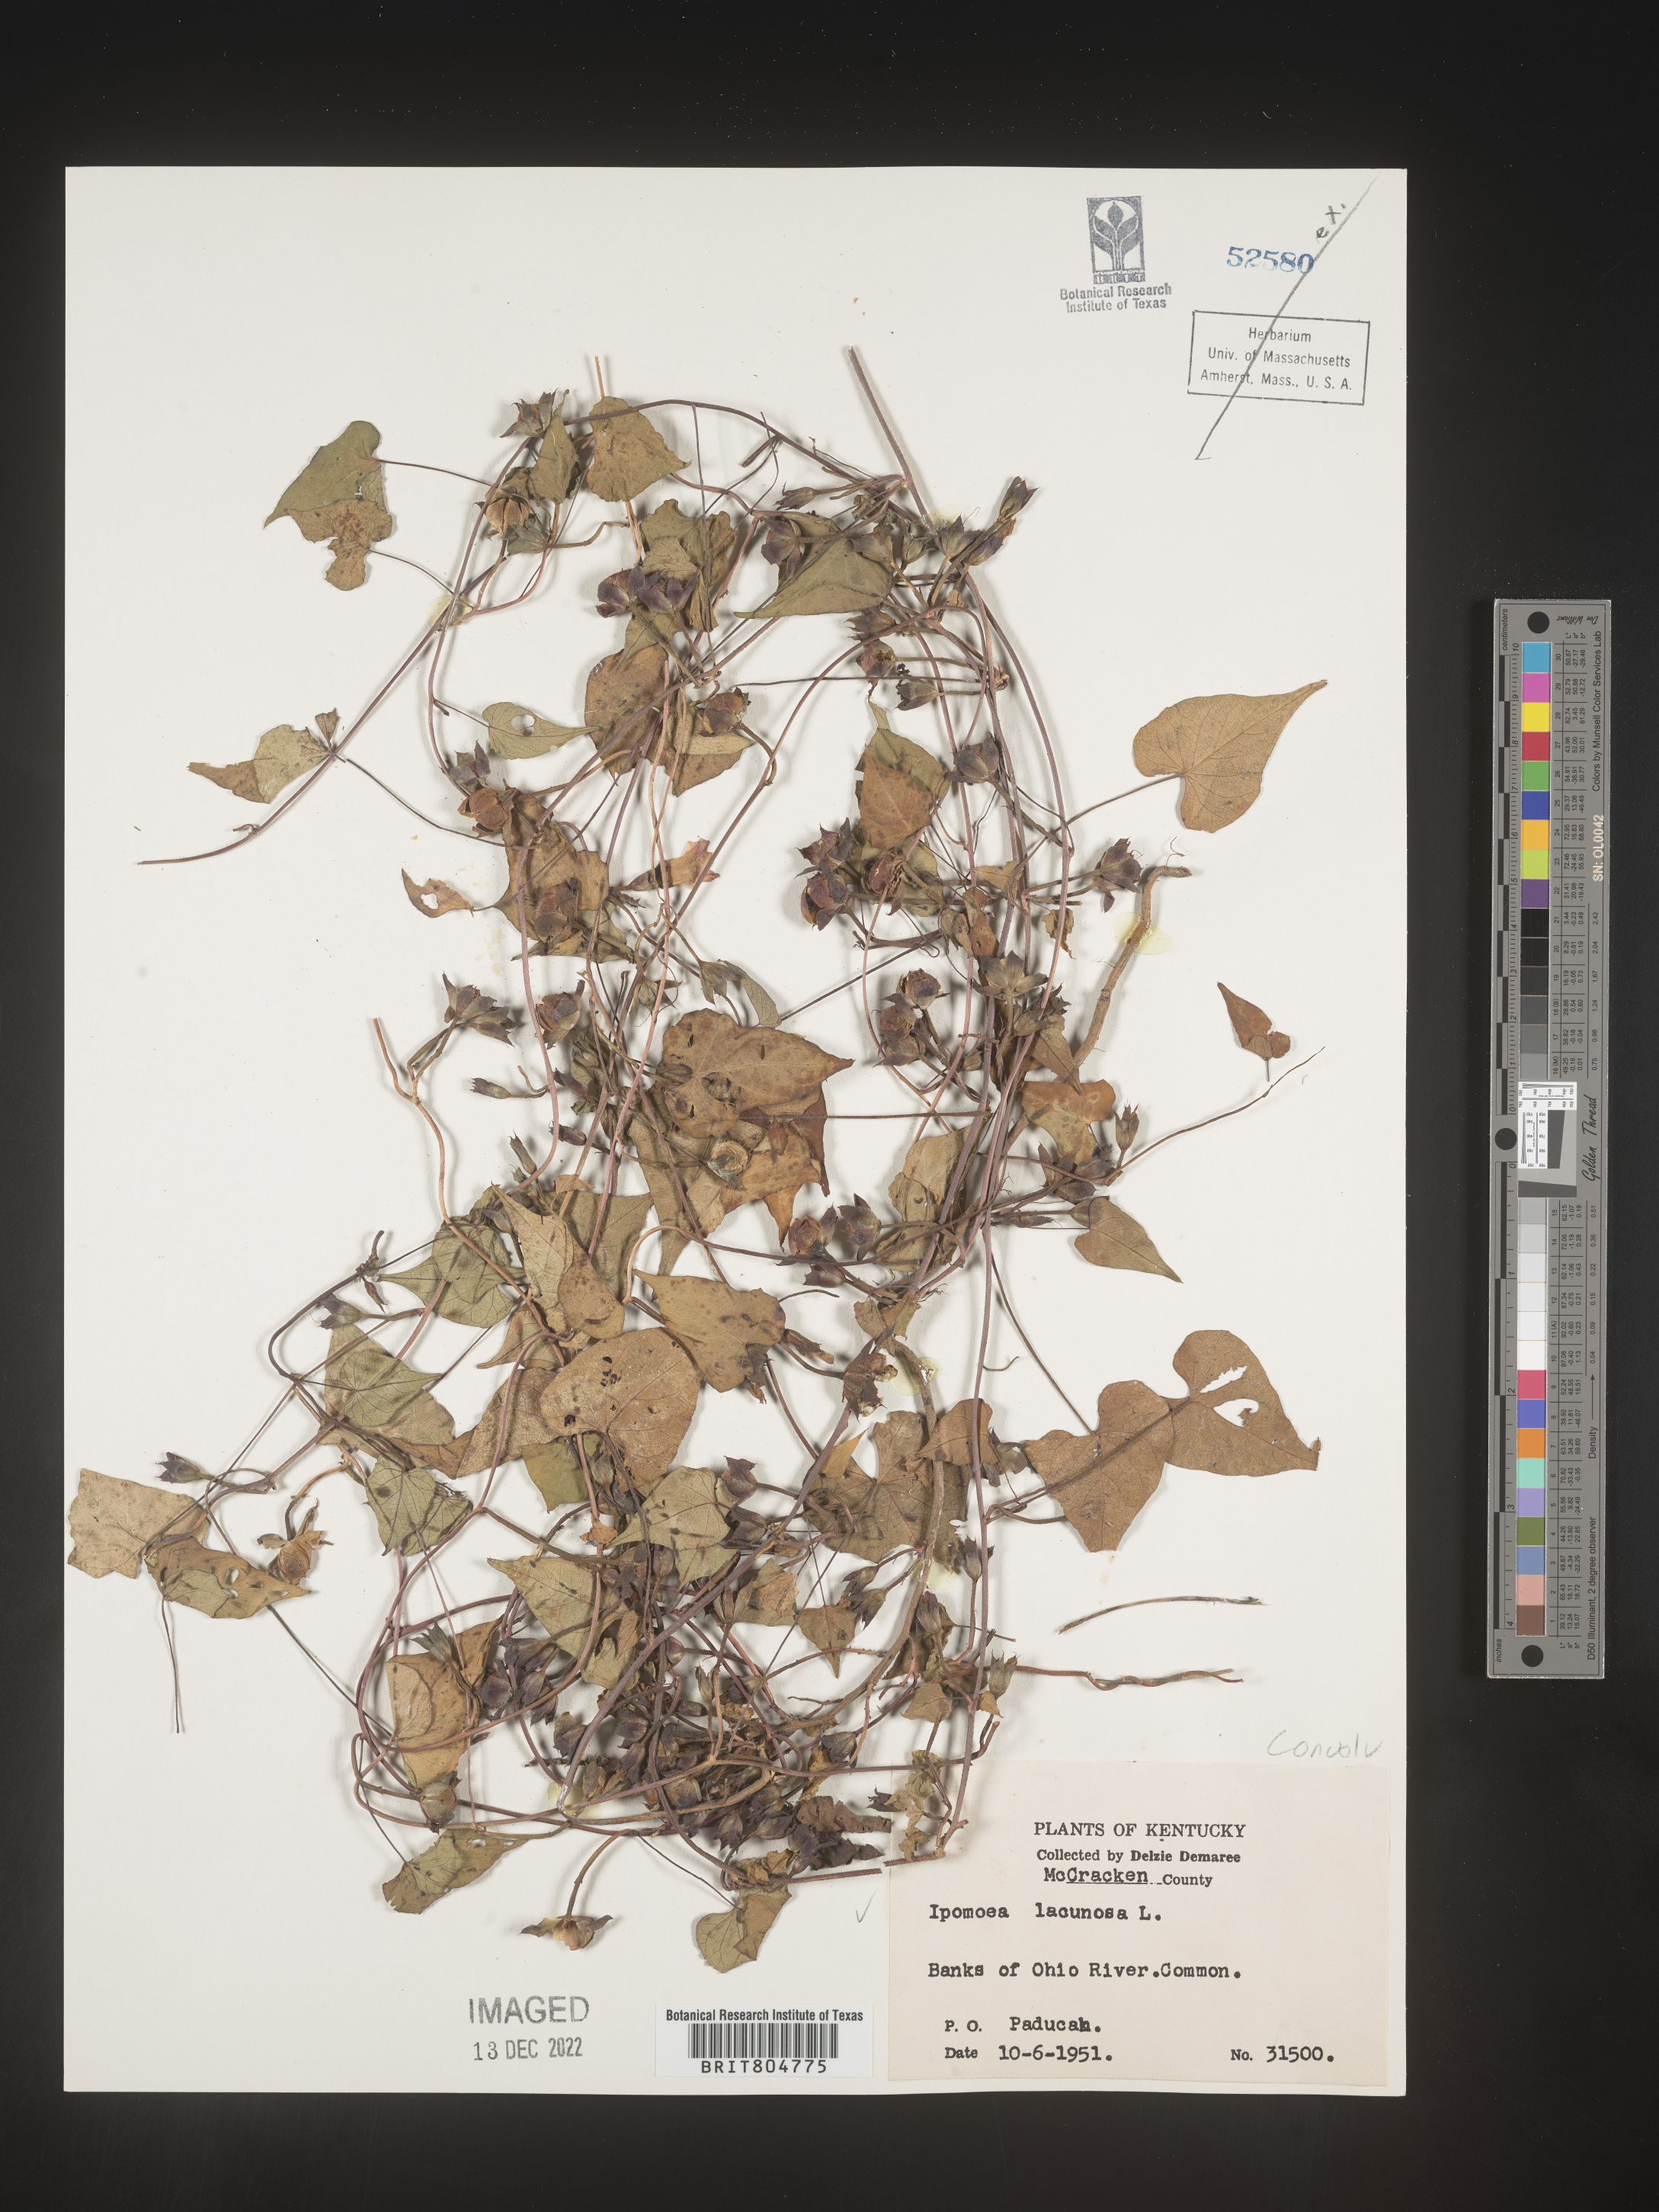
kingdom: Plantae
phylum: Tracheophyta
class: Magnoliopsida
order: Solanales
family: Convolvulaceae
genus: Ipomoea
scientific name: Ipomoea lacunosa
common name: White morning-glory
